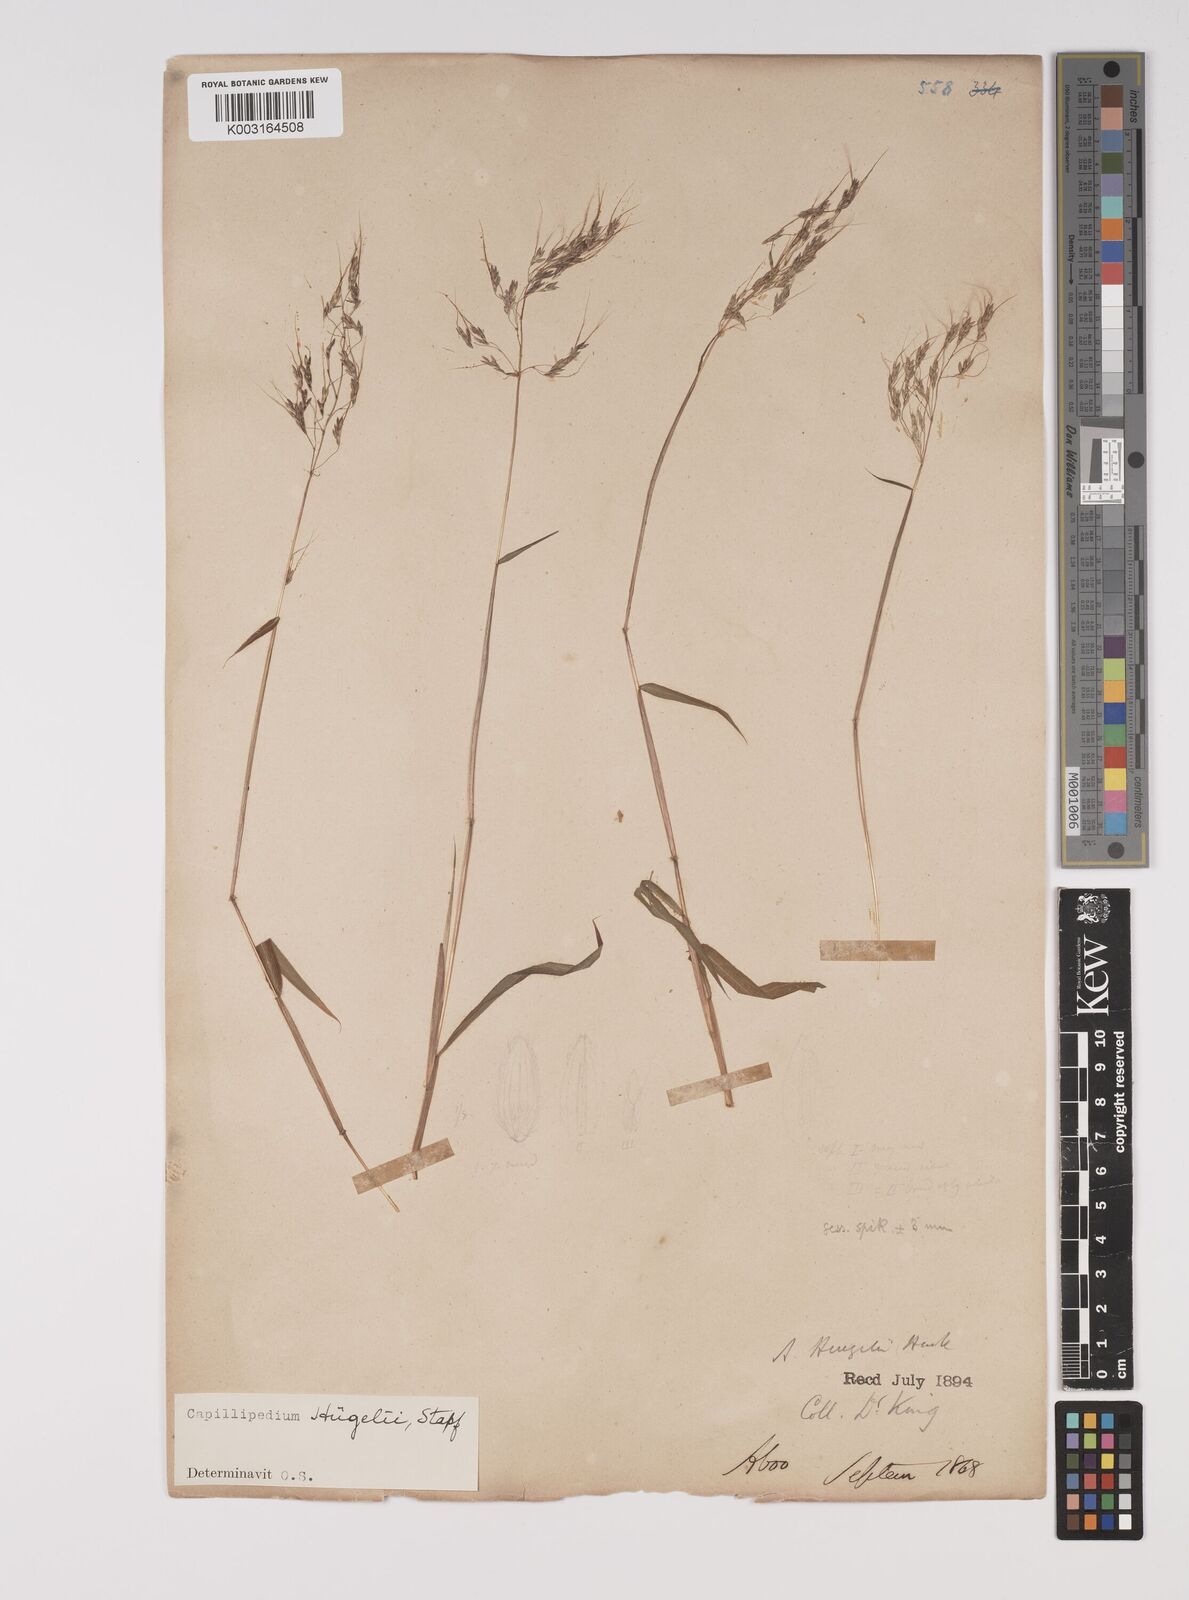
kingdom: Plantae
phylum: Tracheophyta
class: Liliopsida
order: Poales
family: Poaceae
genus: Capillipedium
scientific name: Capillipedium huegelii
